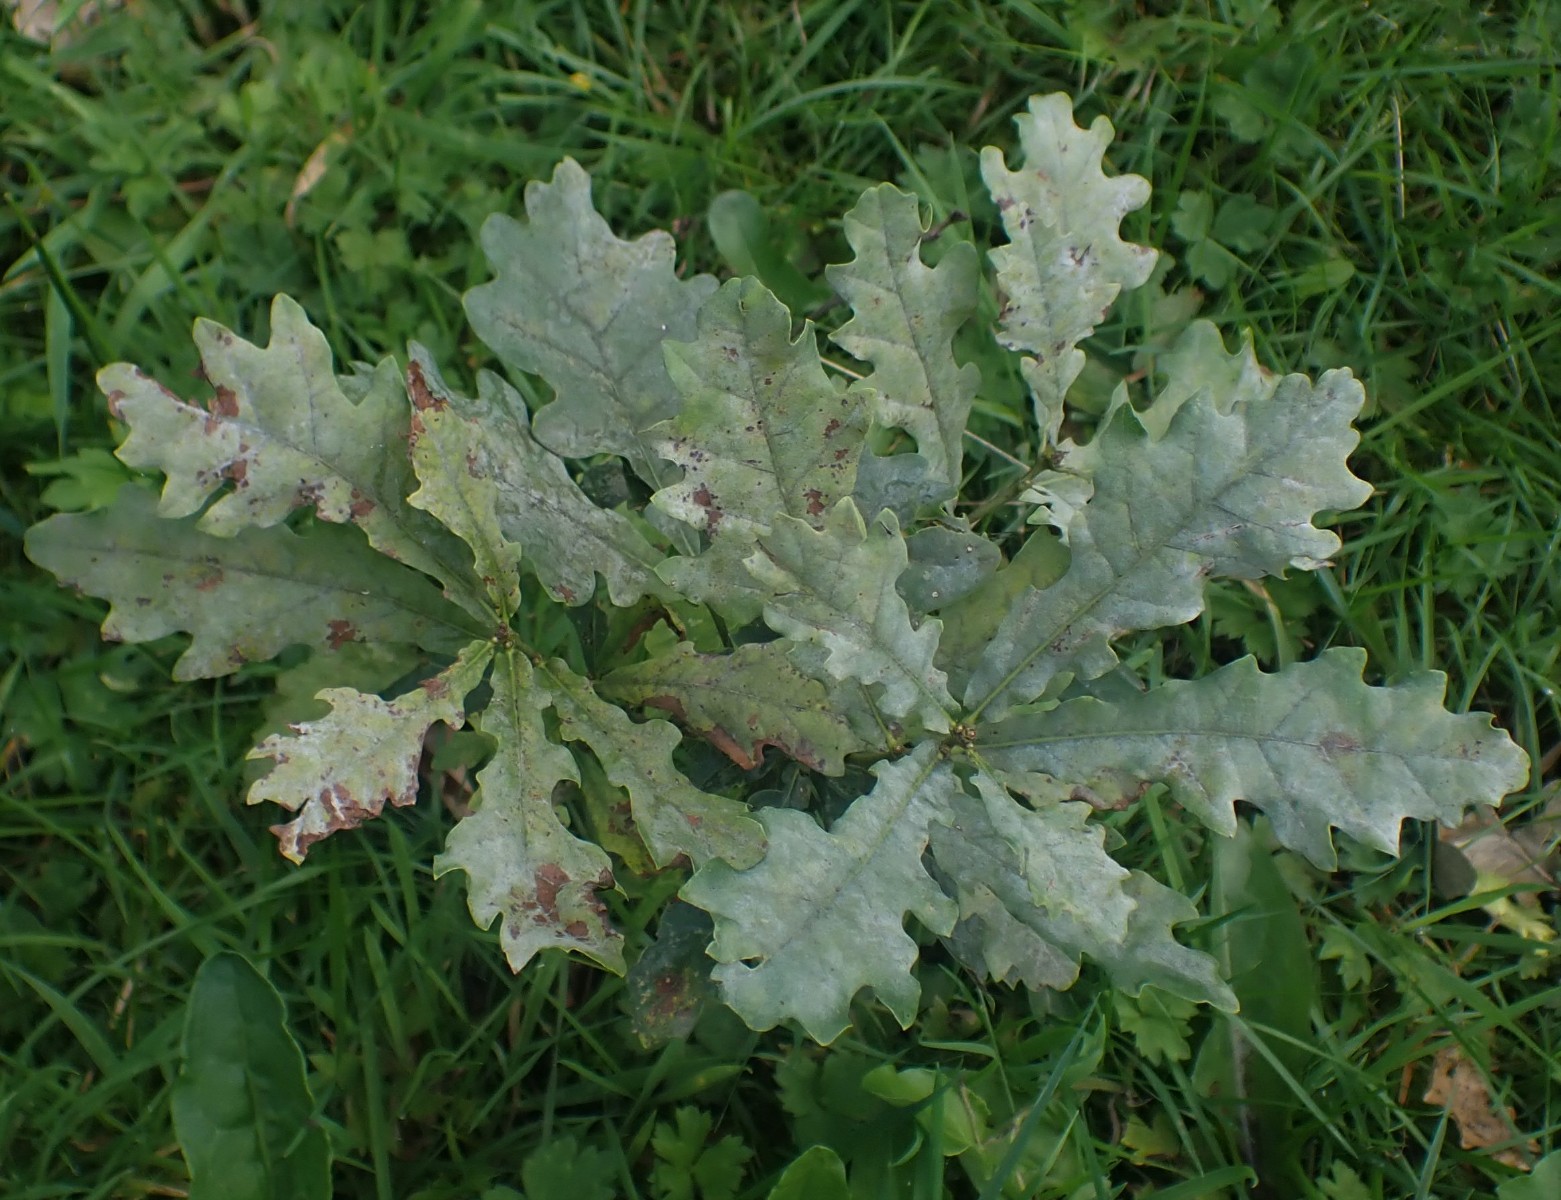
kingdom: Fungi
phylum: Ascomycota
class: Leotiomycetes
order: Helotiales
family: Erysiphaceae
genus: Erysiphe
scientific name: Erysiphe alphitoides
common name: ege-meldug
